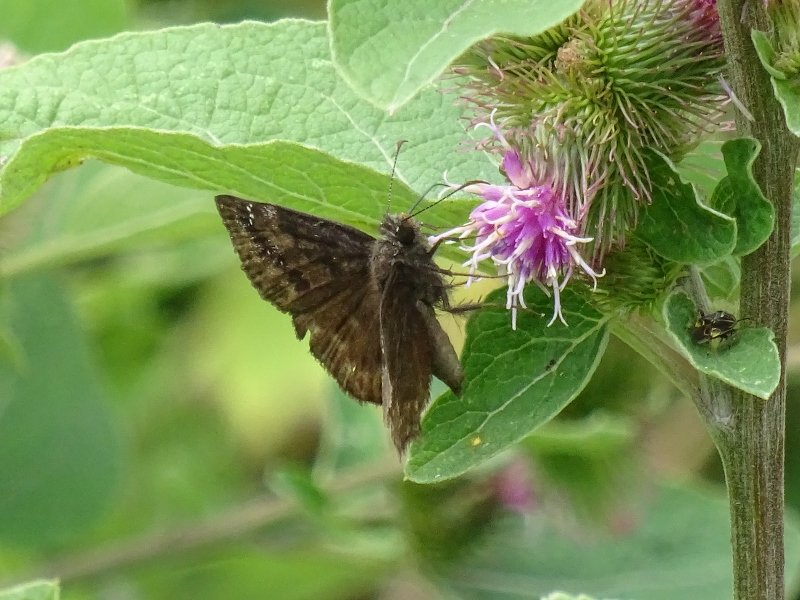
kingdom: Animalia
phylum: Arthropoda
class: Insecta
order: Lepidoptera
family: Hesperiidae
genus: Gesta
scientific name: Gesta
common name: Wild Indigo Duskywing
